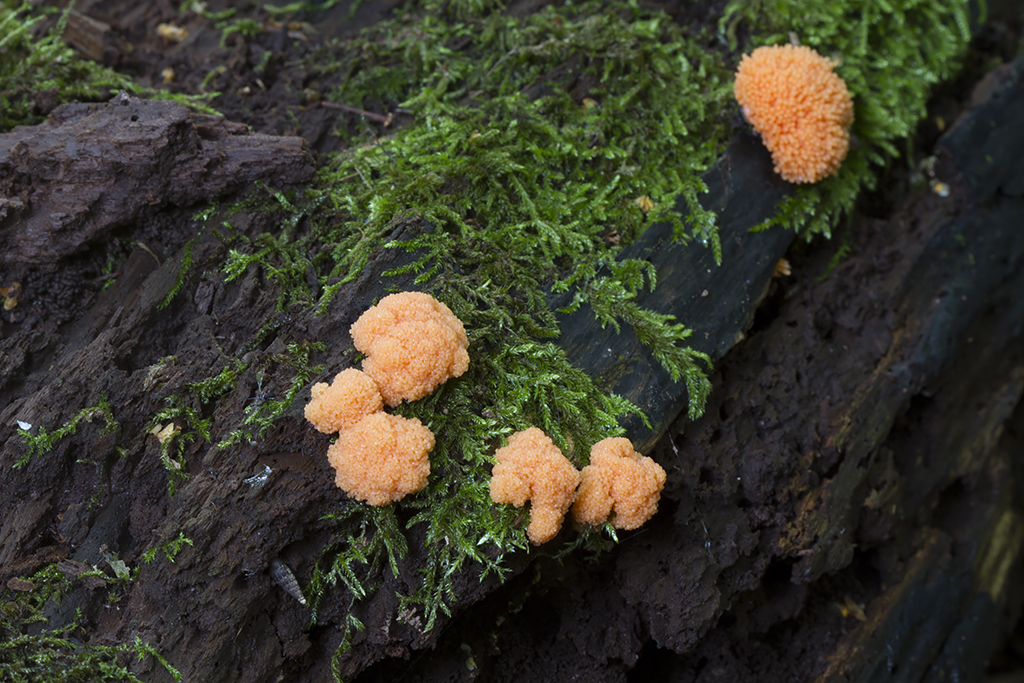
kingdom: Protozoa
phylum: Mycetozoa
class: Myxomycetes
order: Cribrariales
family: Tubiferaceae
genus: Tubifera
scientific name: Tubifera ferruginosa
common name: kanel-støvrør
